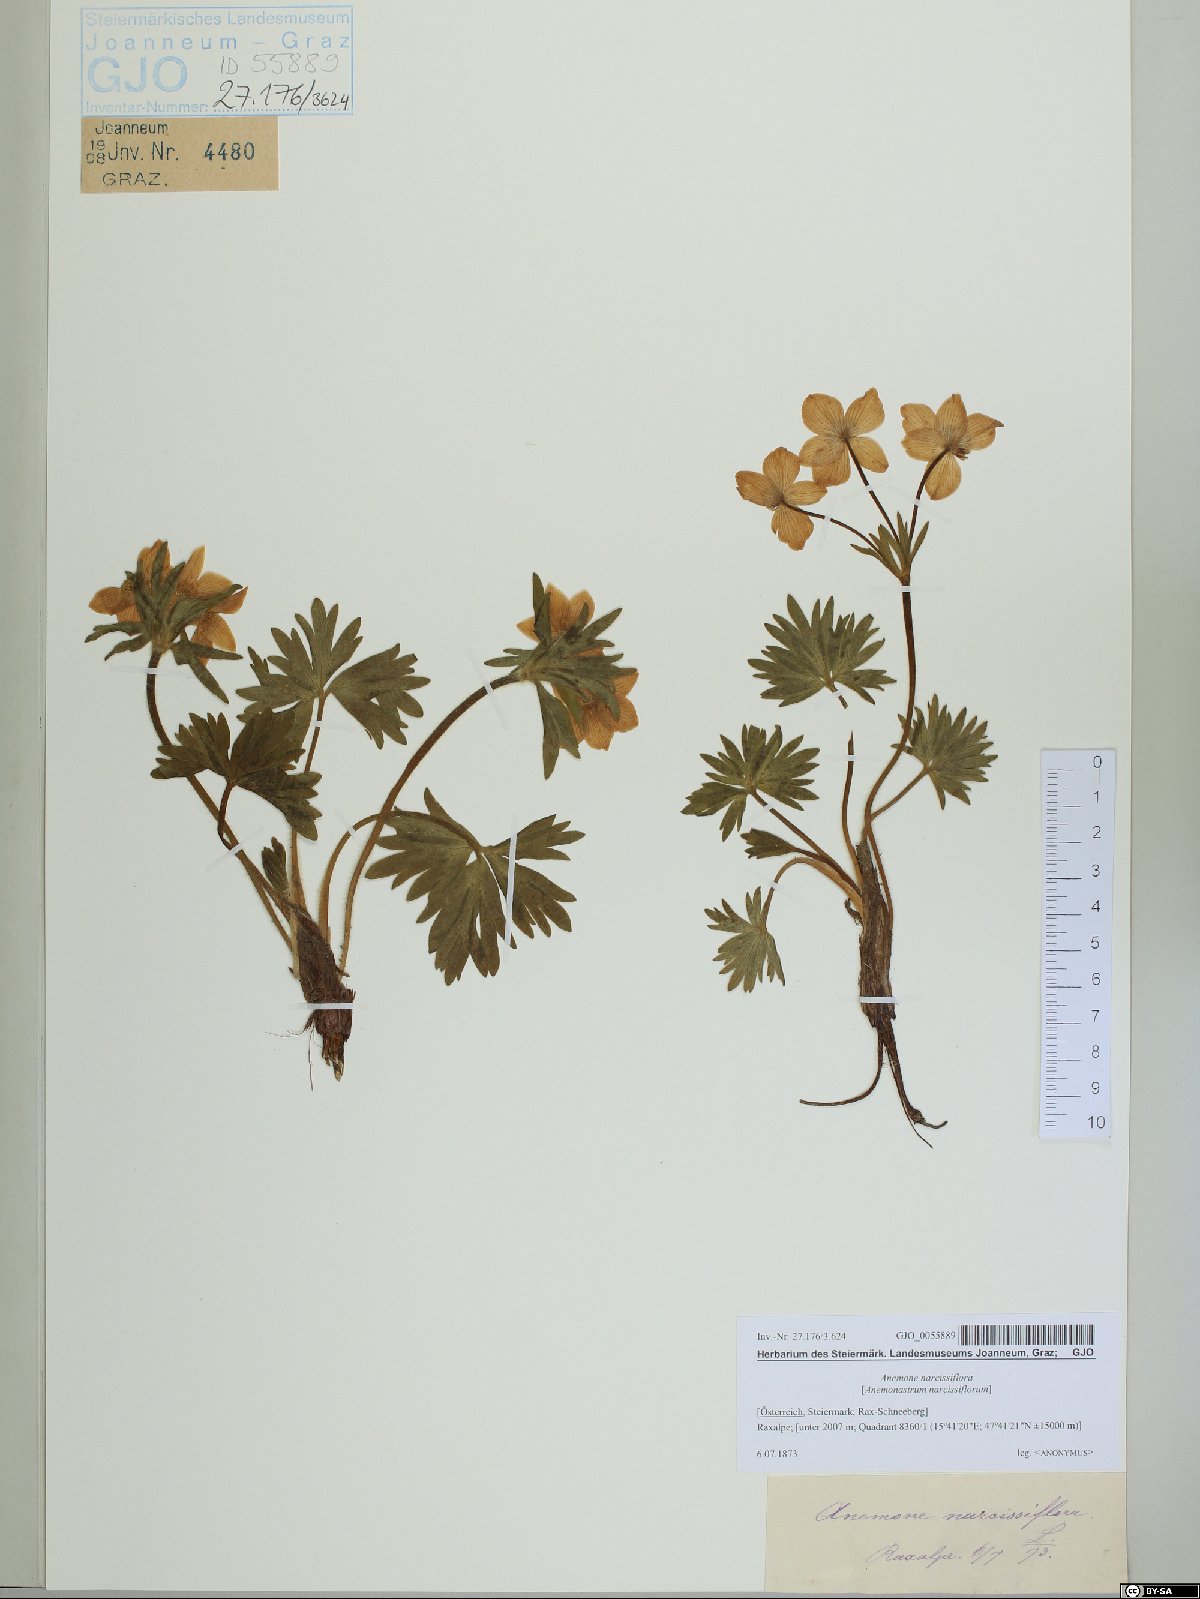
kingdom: Plantae
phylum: Tracheophyta
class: Magnoliopsida
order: Ranunculales
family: Ranunculaceae
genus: Anemonastrum
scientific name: Anemonastrum narcissiflorum
